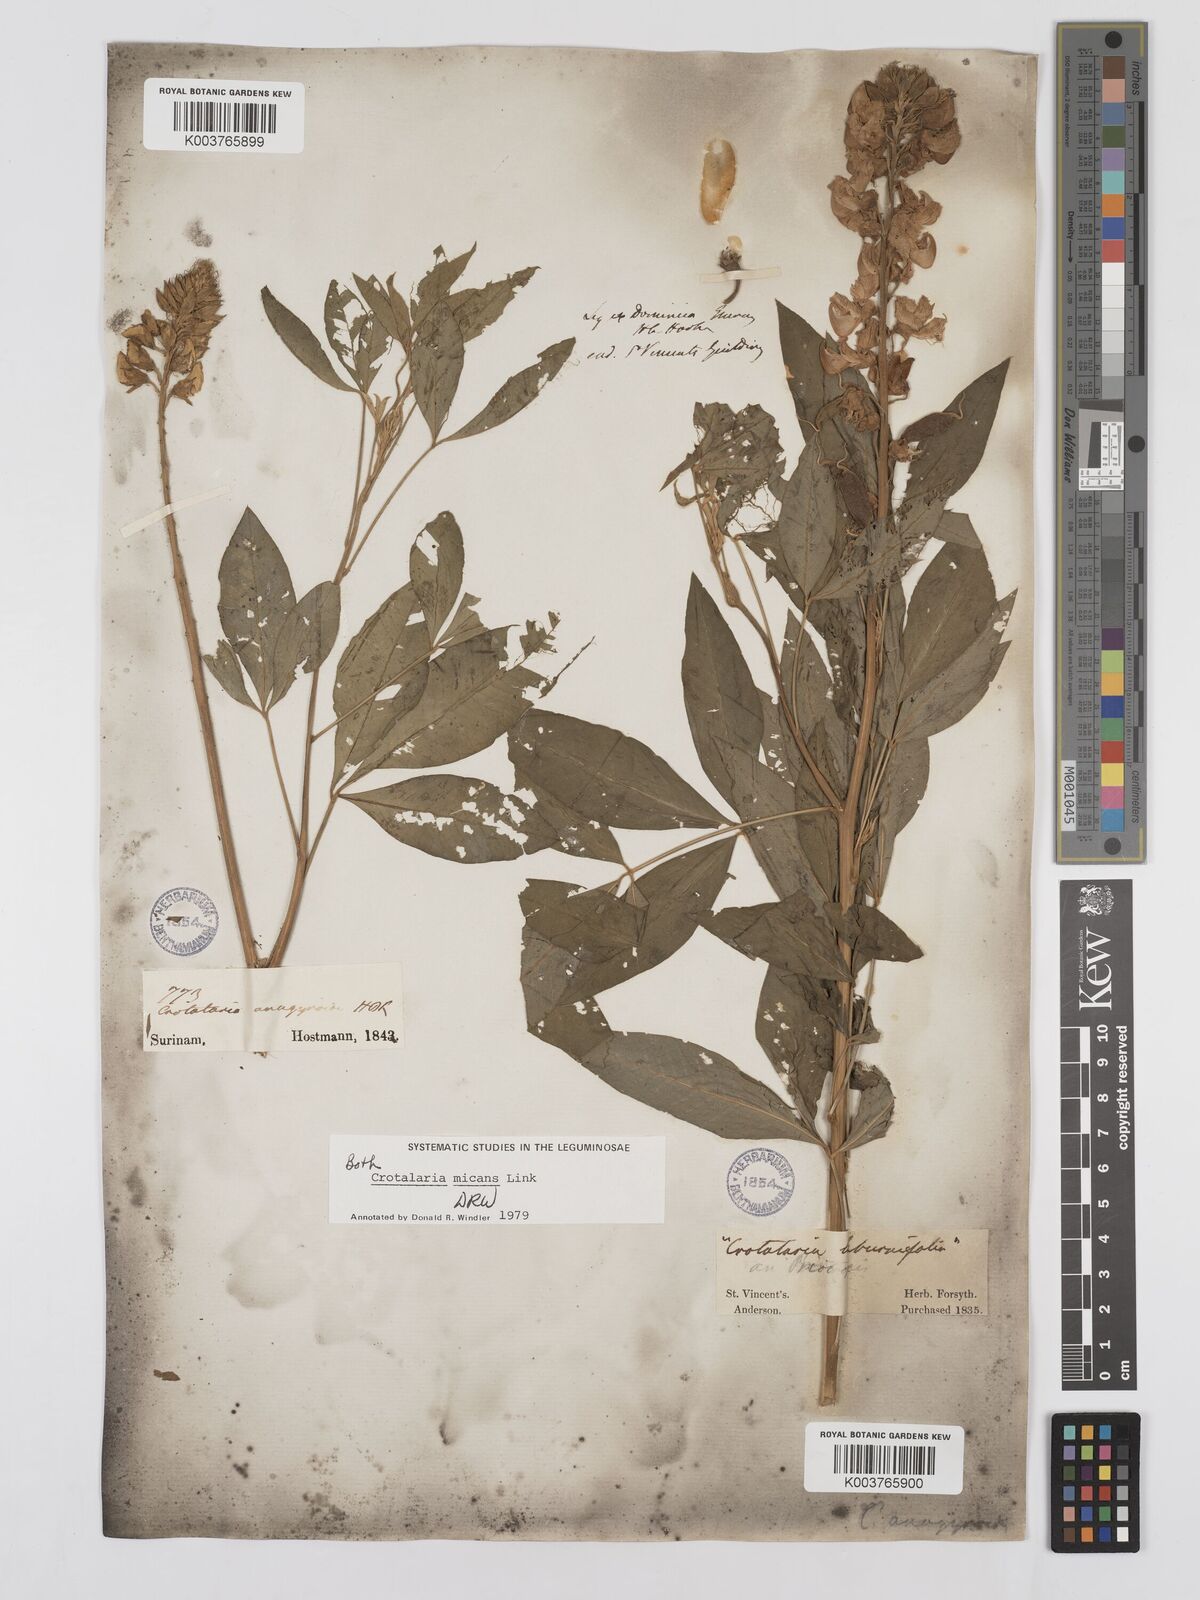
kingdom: Plantae
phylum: Tracheophyta
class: Magnoliopsida
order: Fabales
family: Fabaceae
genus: Crotalaria
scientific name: Crotalaria micans
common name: Caracas rattlebox
